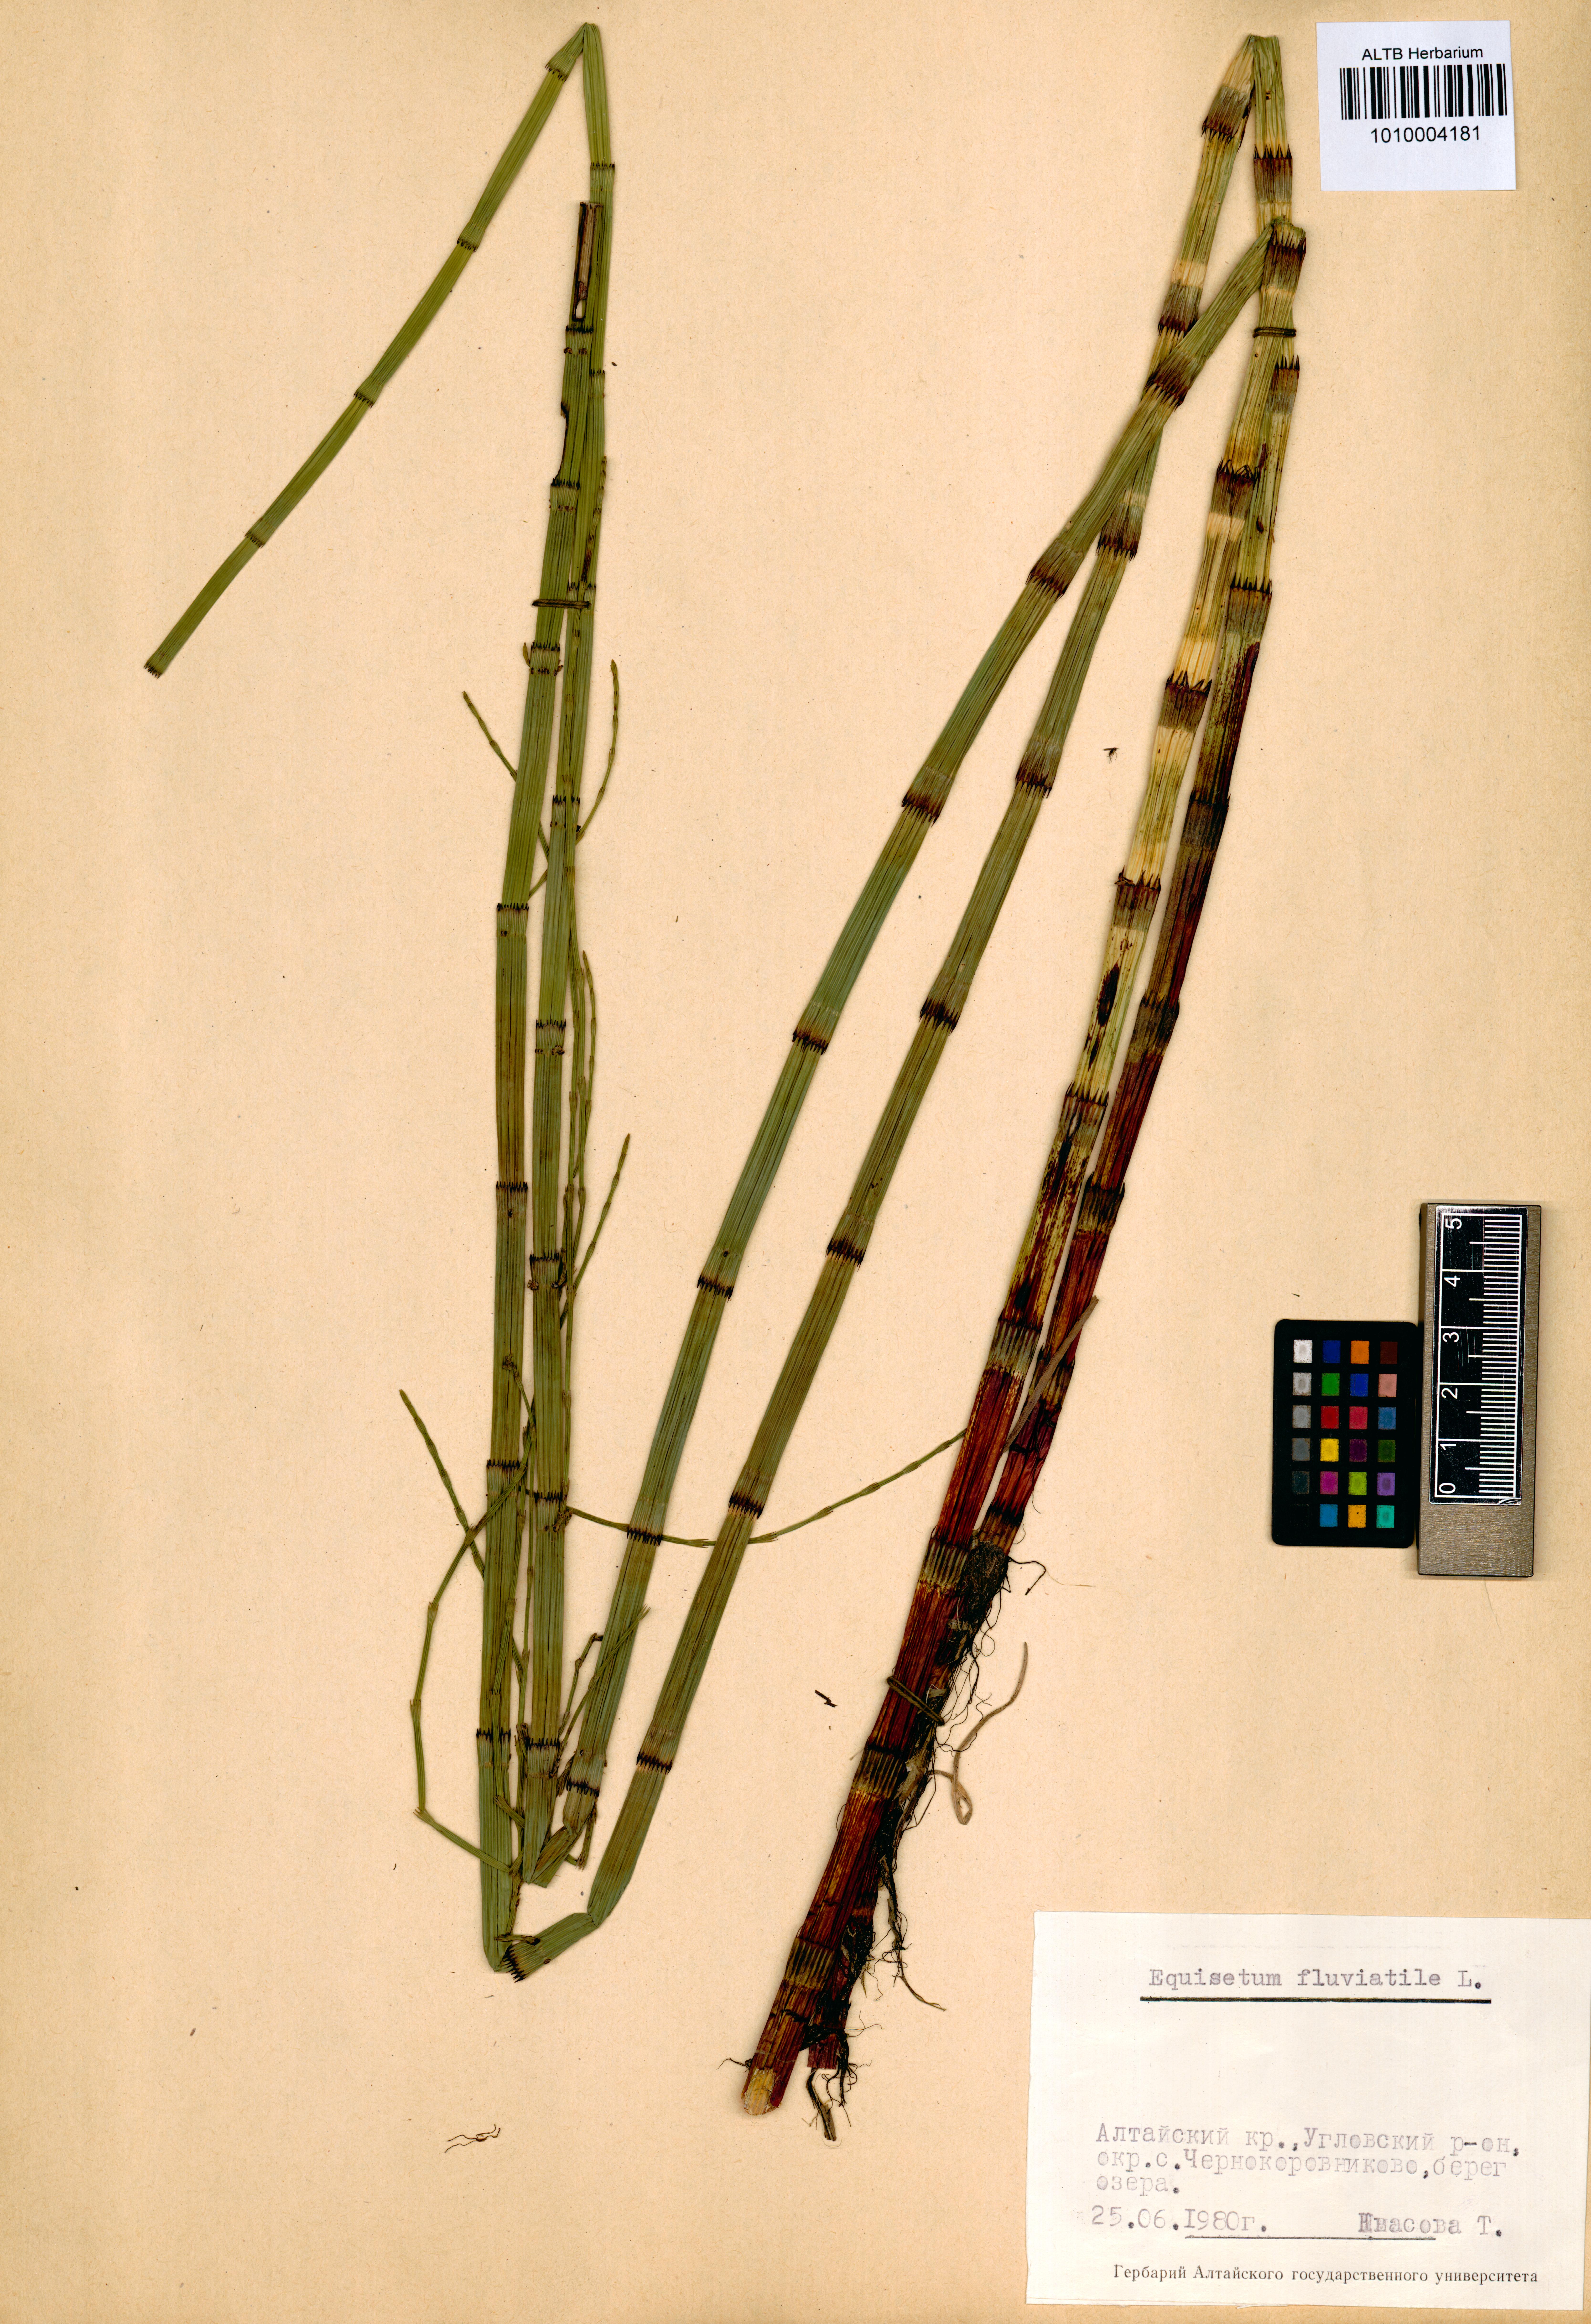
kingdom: Plantae
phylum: Tracheophyta
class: Polypodiopsida
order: Equisetales
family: Equisetaceae
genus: Equisetum
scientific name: Equisetum fluviatile
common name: Water horsetail
